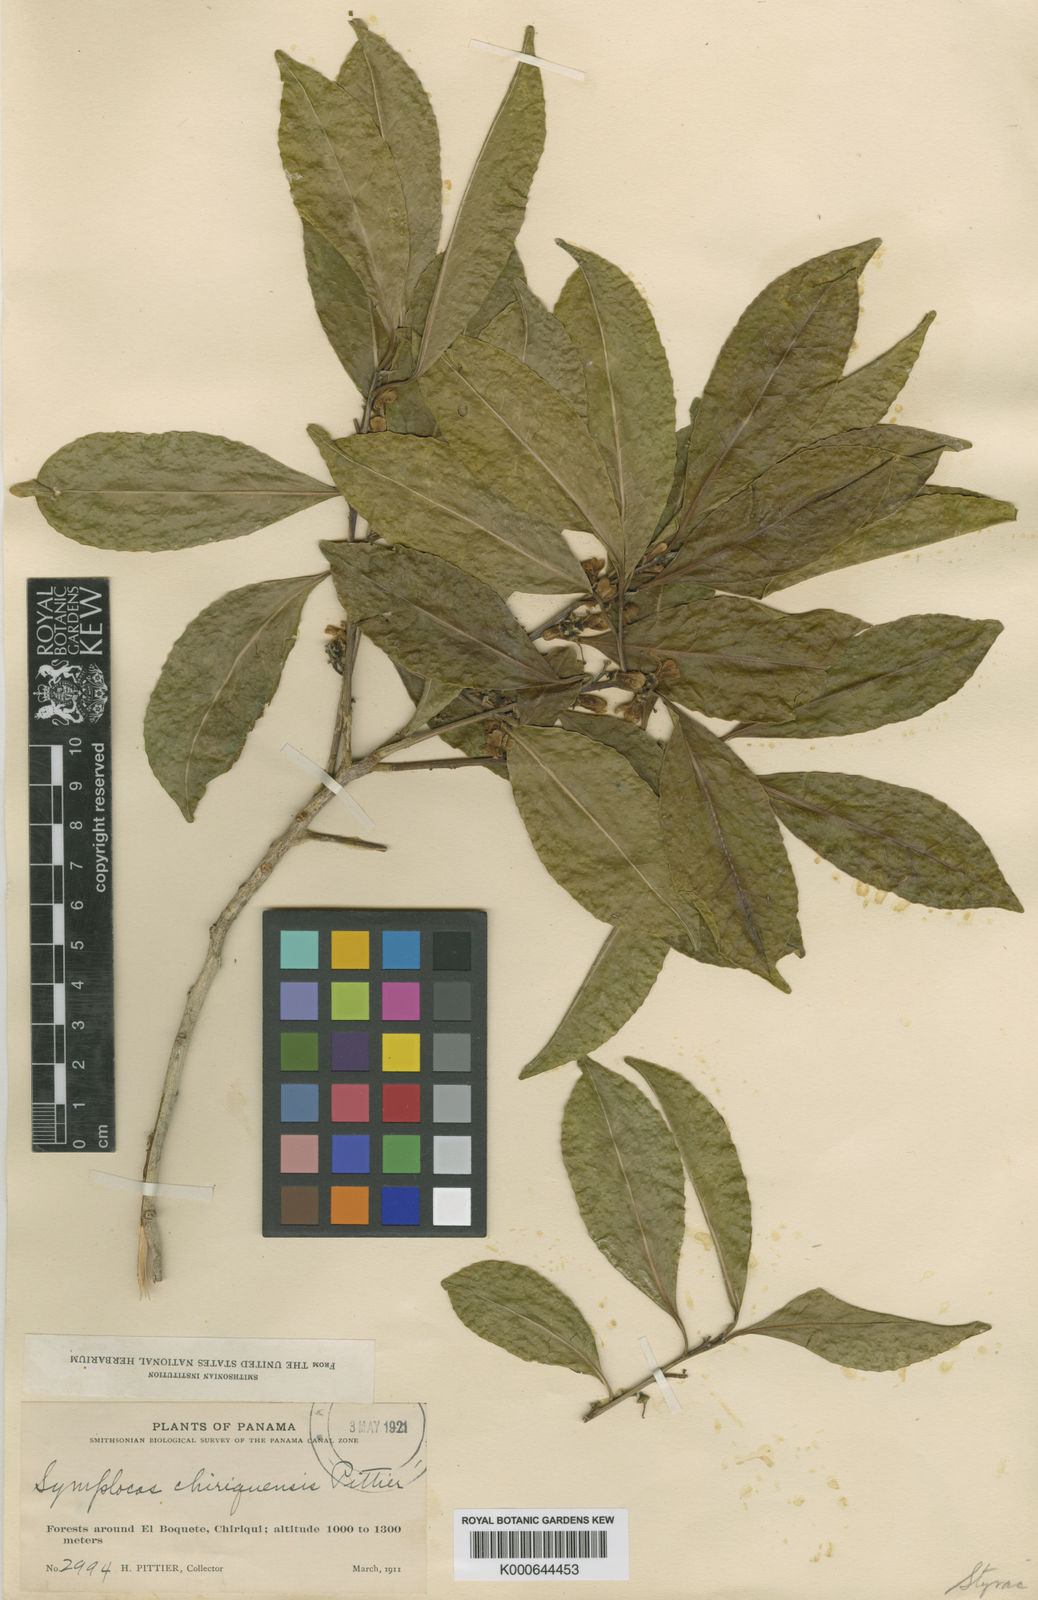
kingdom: Plantae
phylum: Tracheophyta
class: Magnoliopsida
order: Ericales
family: Symplocaceae
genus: Symplocos
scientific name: Symplocos limoncillo
